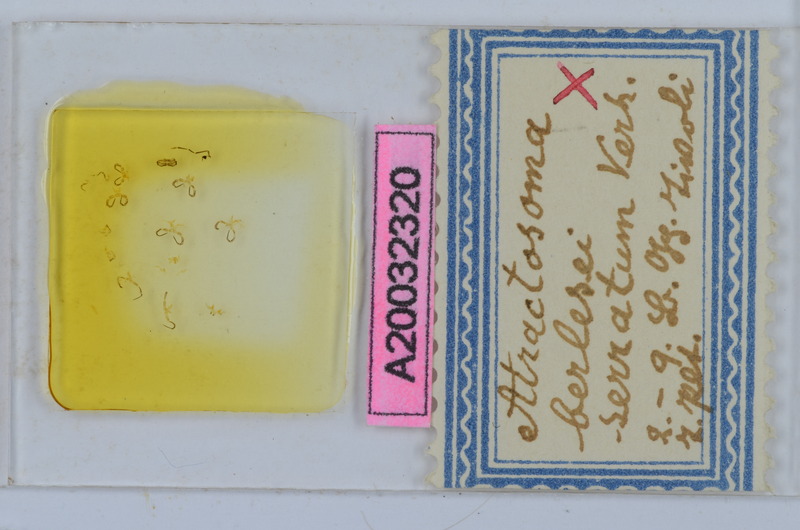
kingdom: Animalia
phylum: Arthropoda
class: Diplopoda
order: Chordeumatida
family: Craspedosomatidae
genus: Atractosoma
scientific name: Atractosoma cecconii
